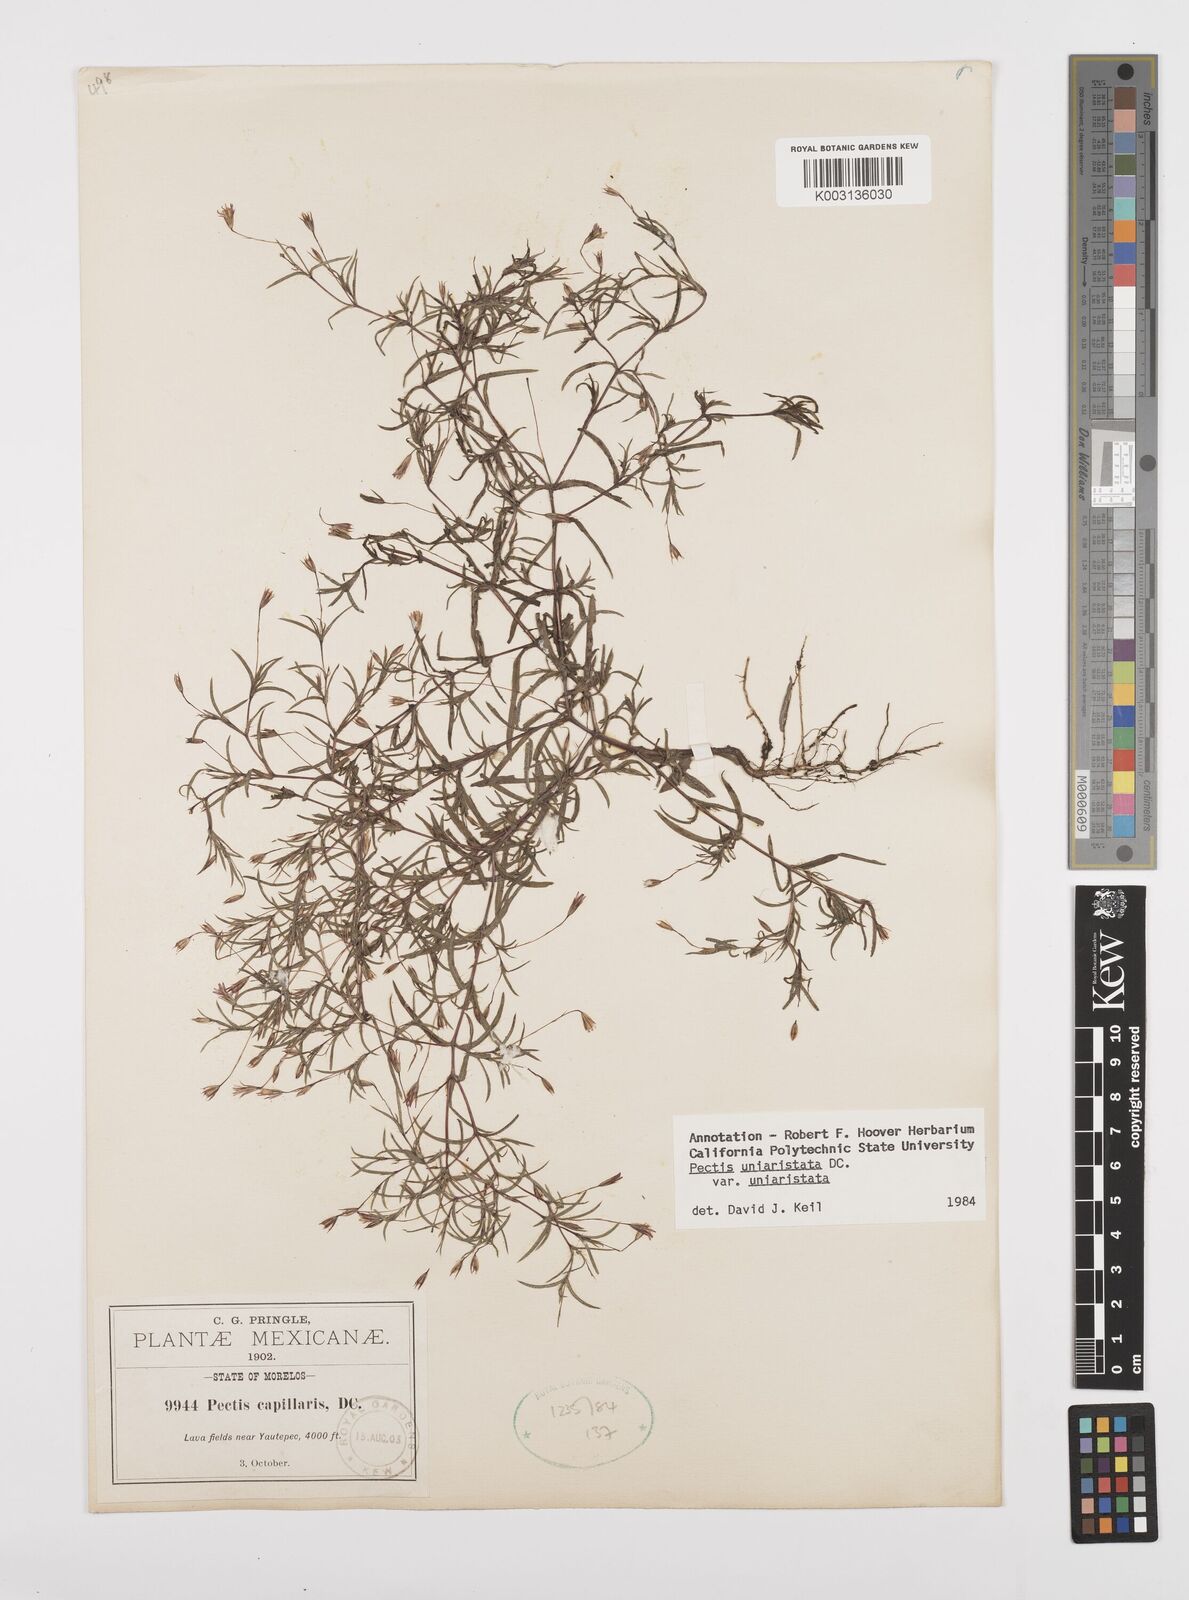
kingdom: Plantae
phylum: Tracheophyta
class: Magnoliopsida
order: Asterales
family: Asteraceae
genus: Pectis
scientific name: Pectis uniaristata
